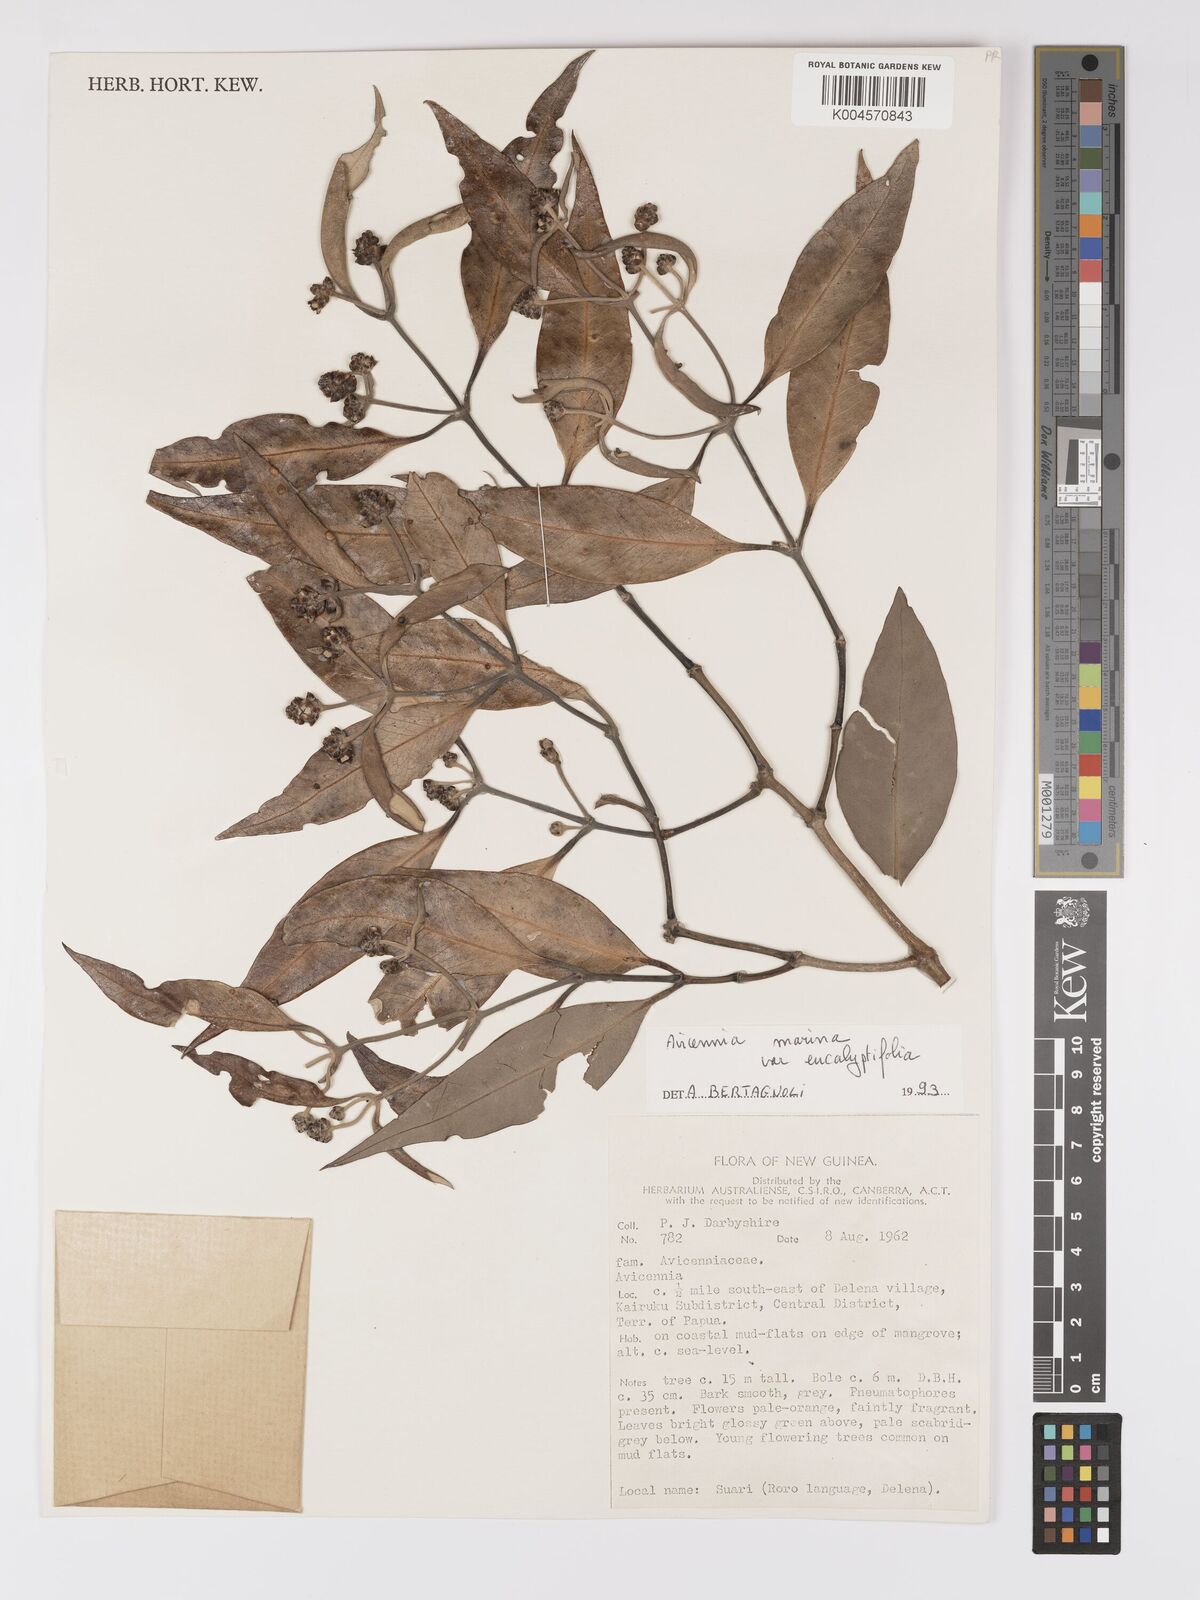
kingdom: Plantae
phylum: Tracheophyta
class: Magnoliopsida
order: Lamiales
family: Acanthaceae
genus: Avicennia
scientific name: Avicennia marina
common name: Gray mangrove
